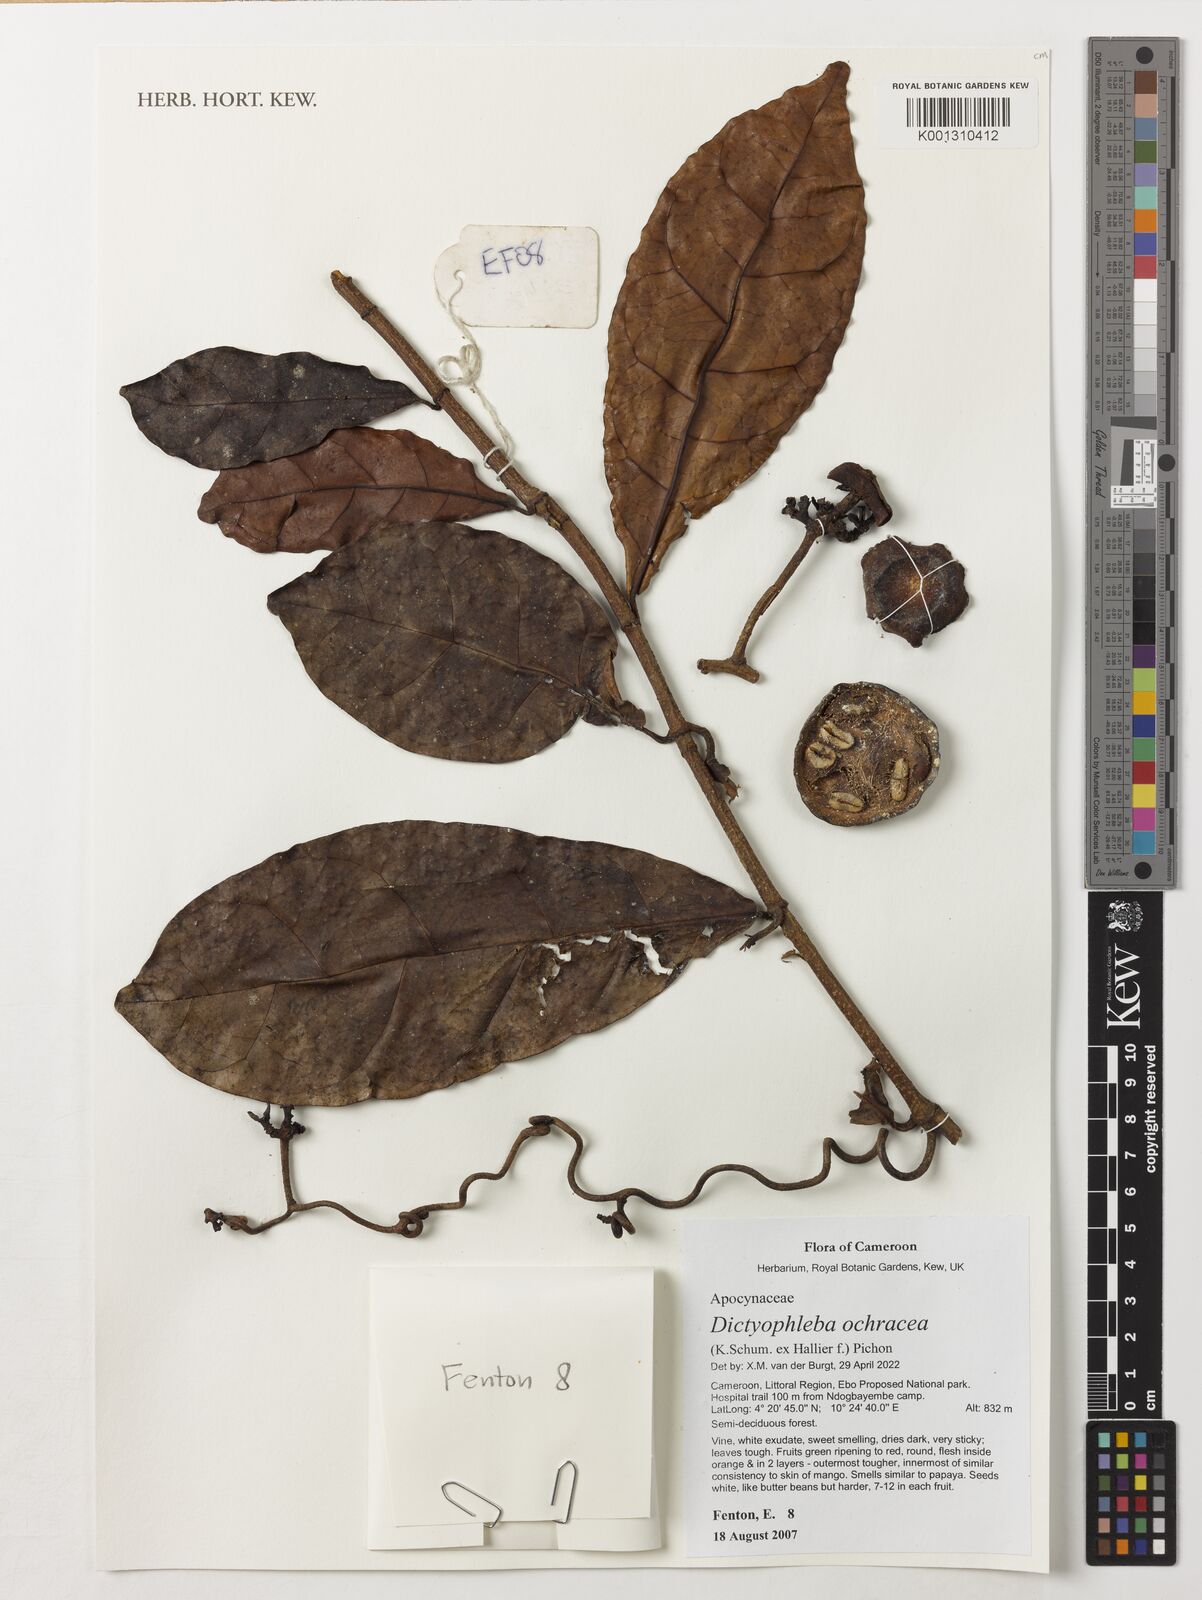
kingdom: Plantae
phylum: Tracheophyta
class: Magnoliopsida
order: Gentianales
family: Apocynaceae
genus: Dictyophleba
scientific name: Dictyophleba ochracea
